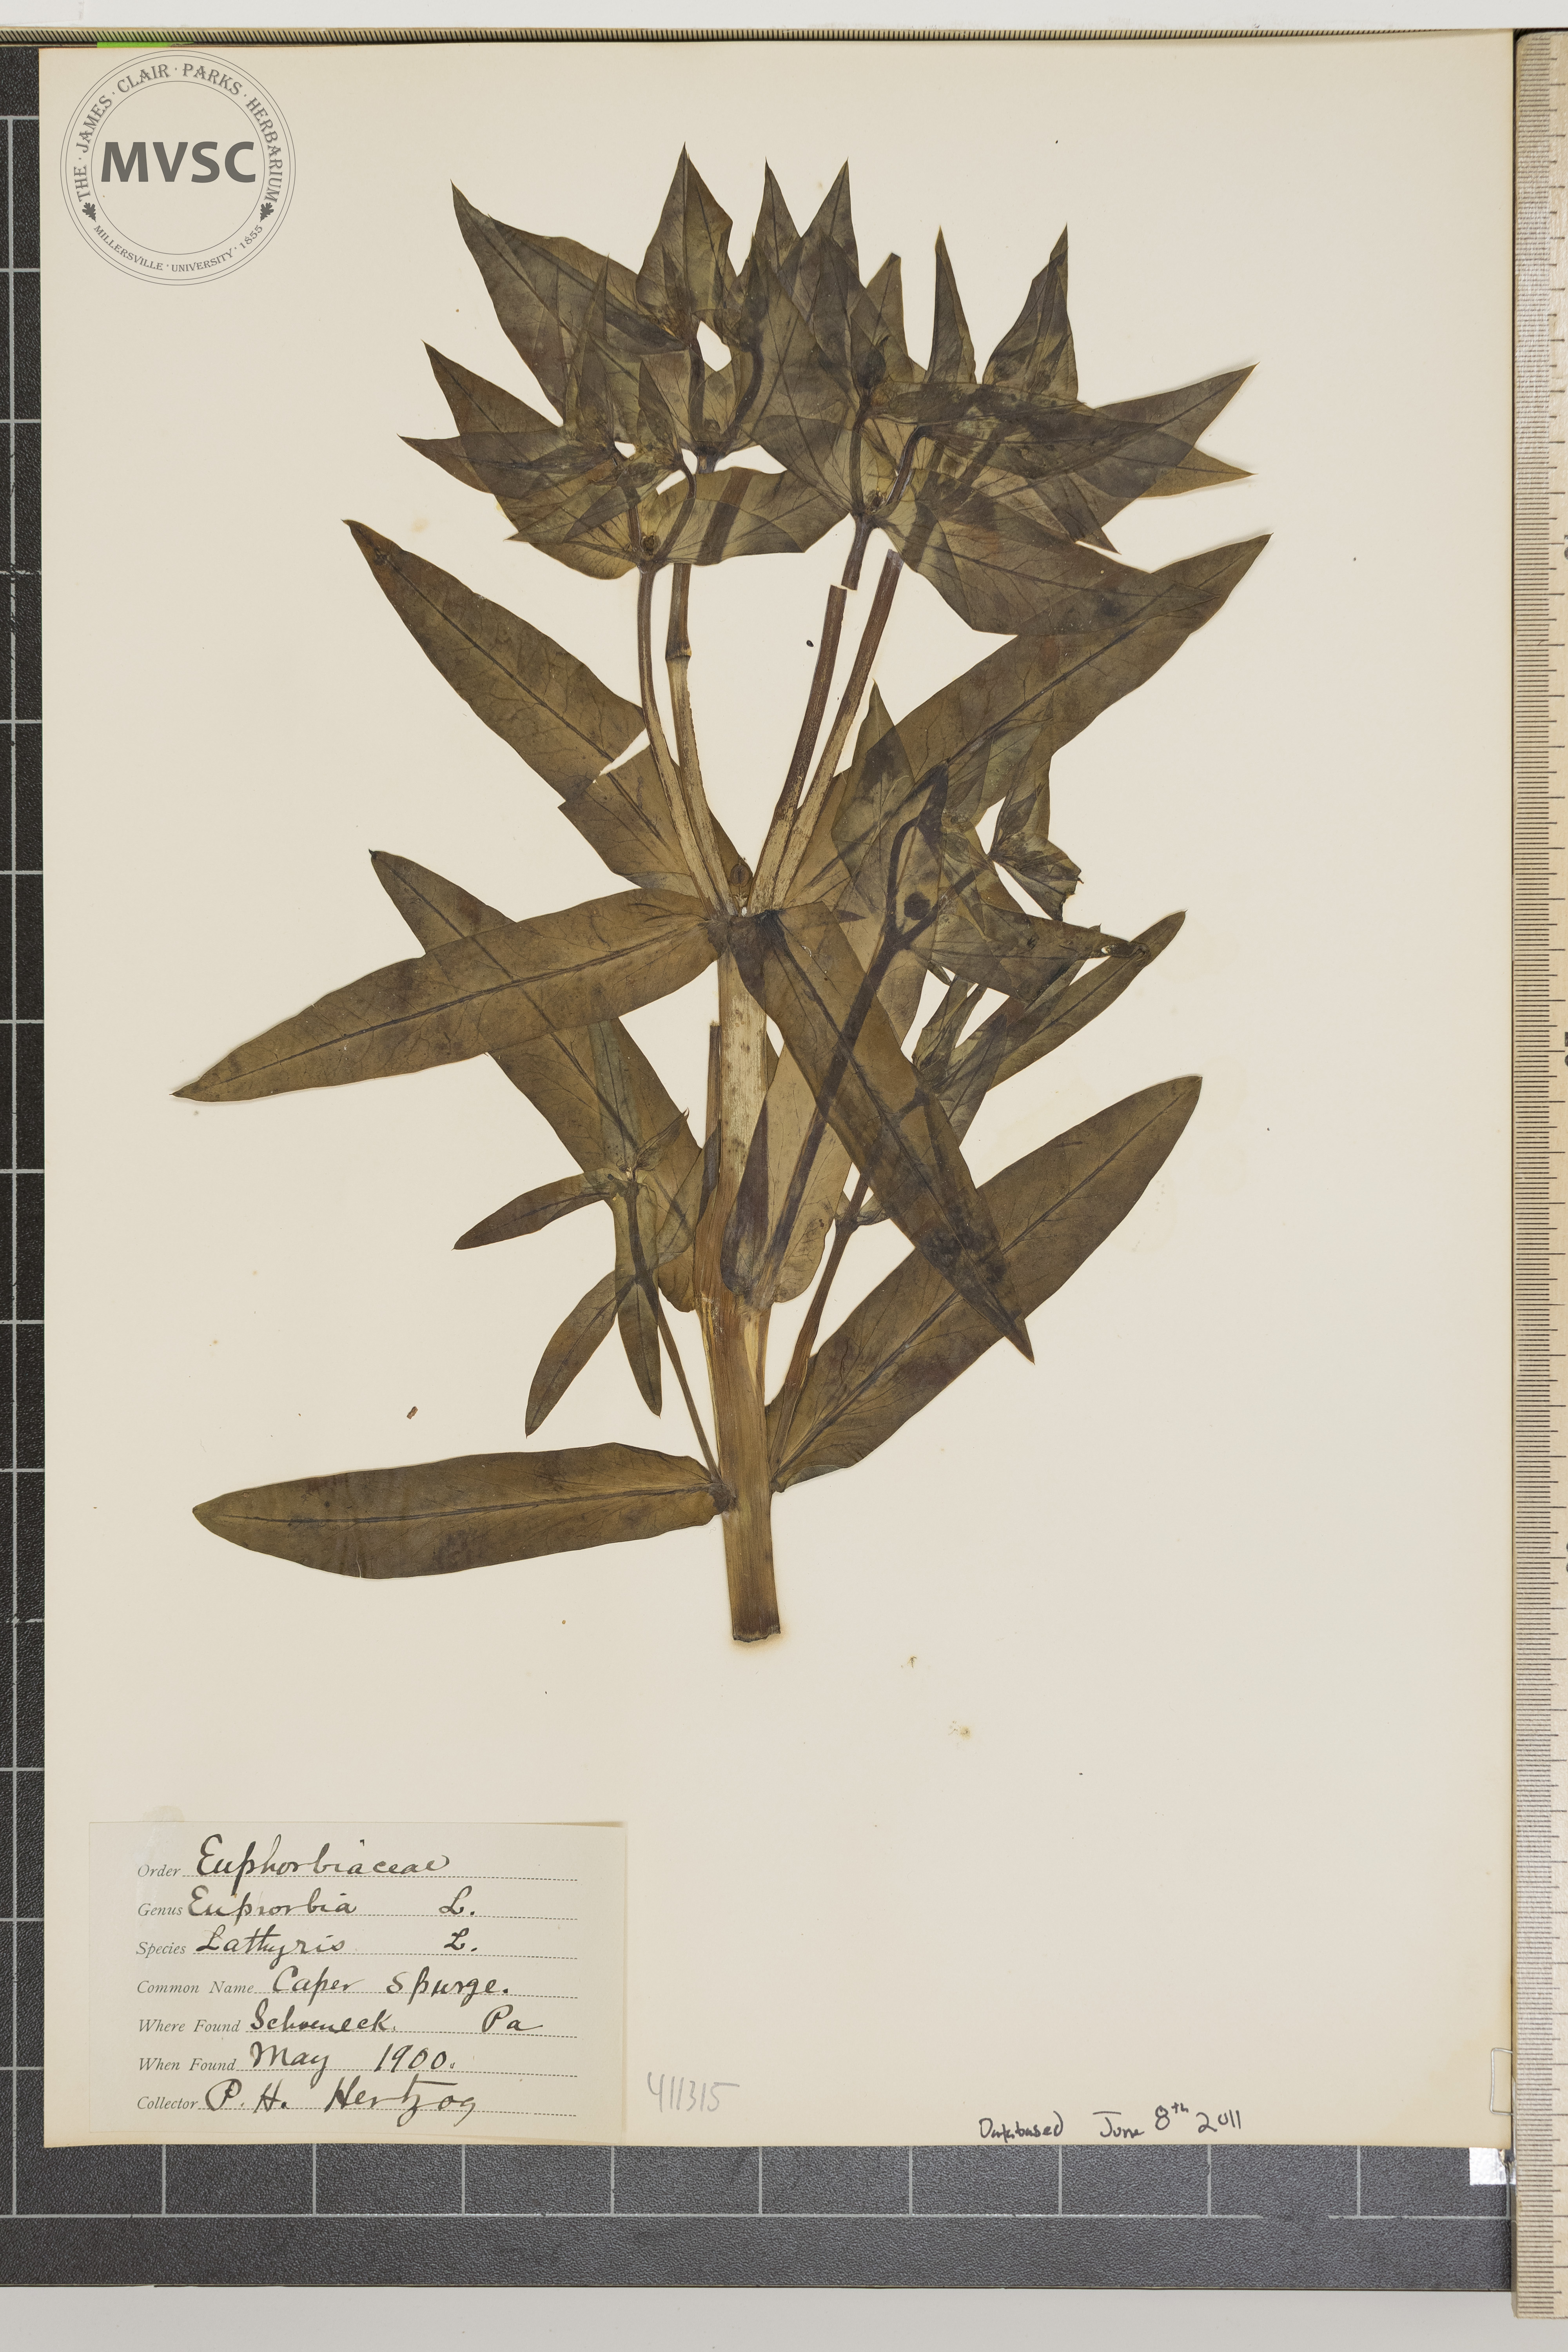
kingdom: Plantae
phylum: Tracheophyta
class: Magnoliopsida
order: Malpighiales
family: Euphorbiaceae
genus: Euphorbia
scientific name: Euphorbia lathyris
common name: Caper spurge
